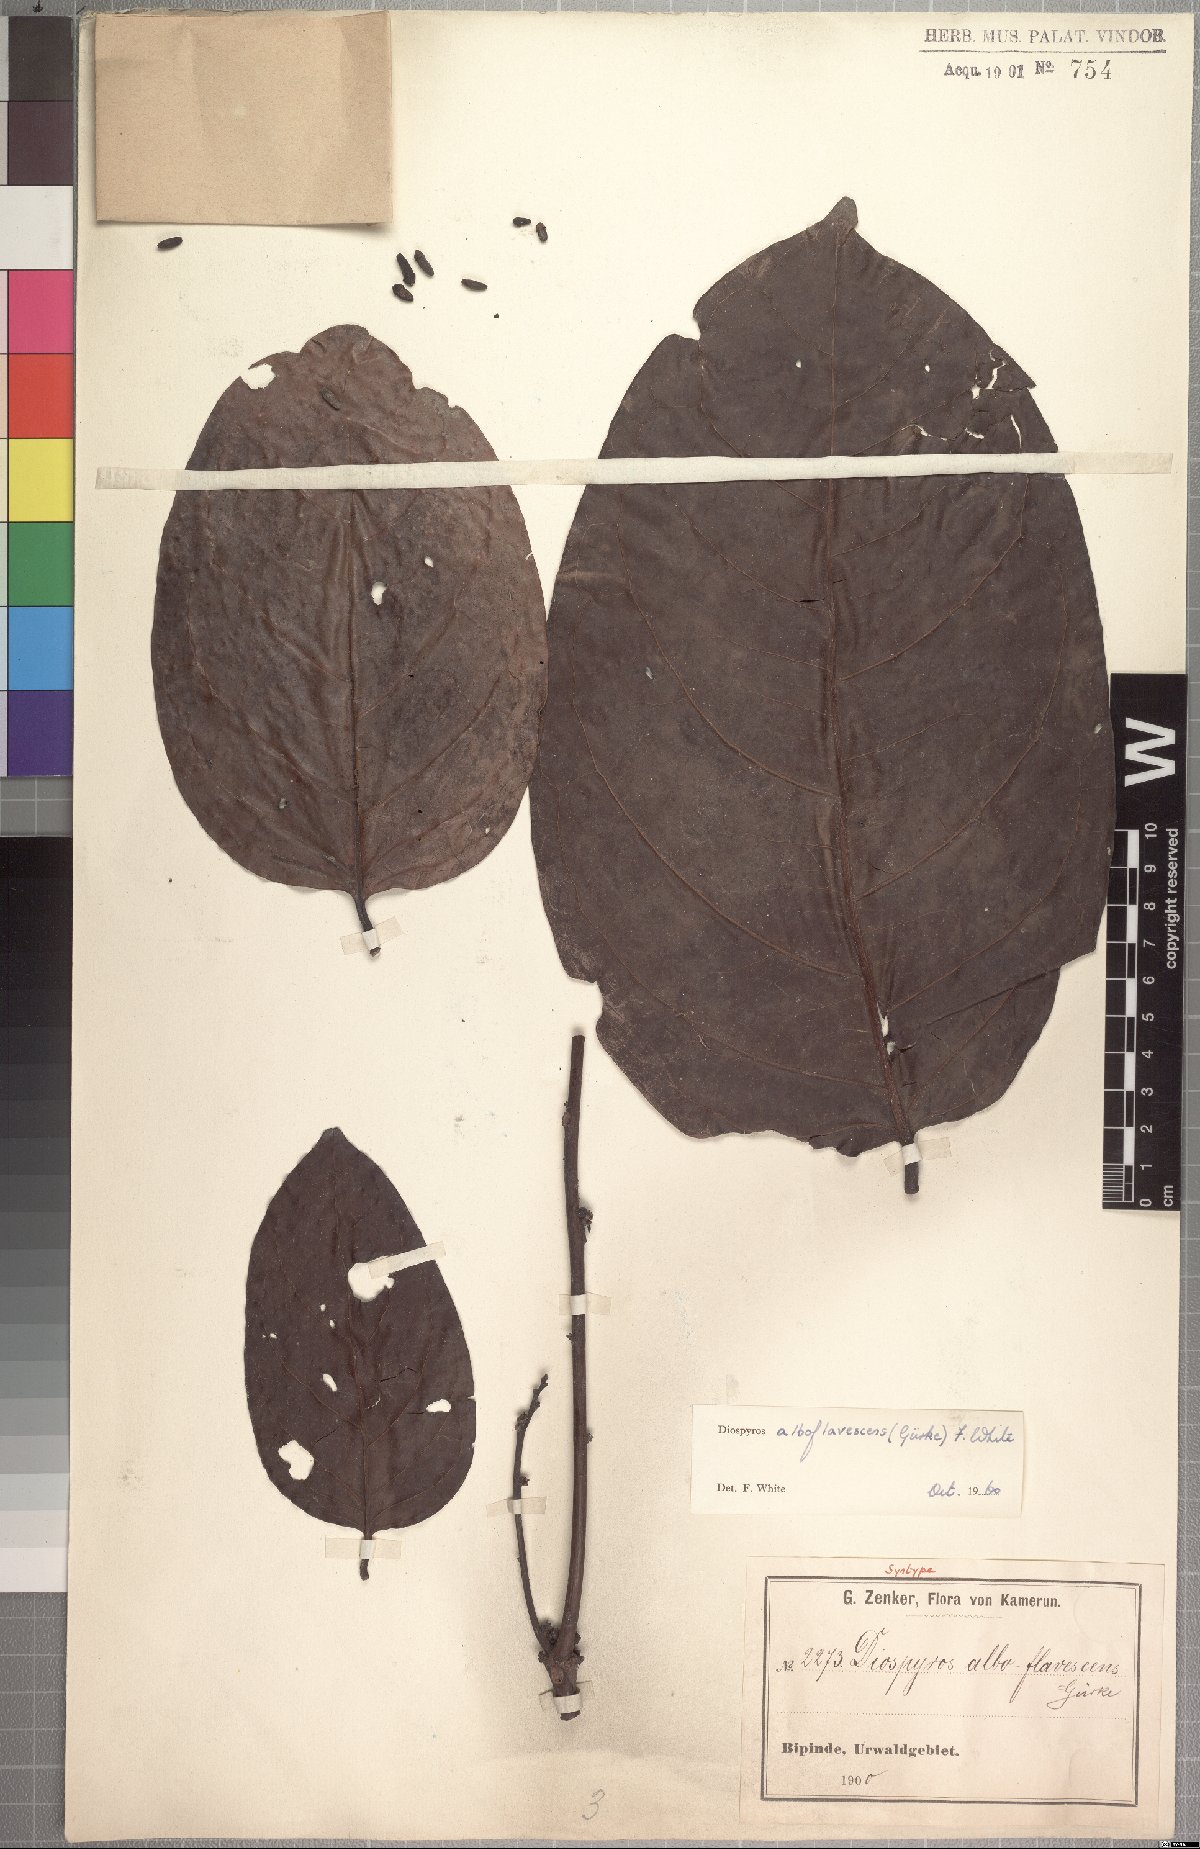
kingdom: Plantae
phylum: Tracheophyta
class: Magnoliopsida
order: Ericales
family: Ebenaceae
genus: Diospyros
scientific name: Diospyros alboflavescens
